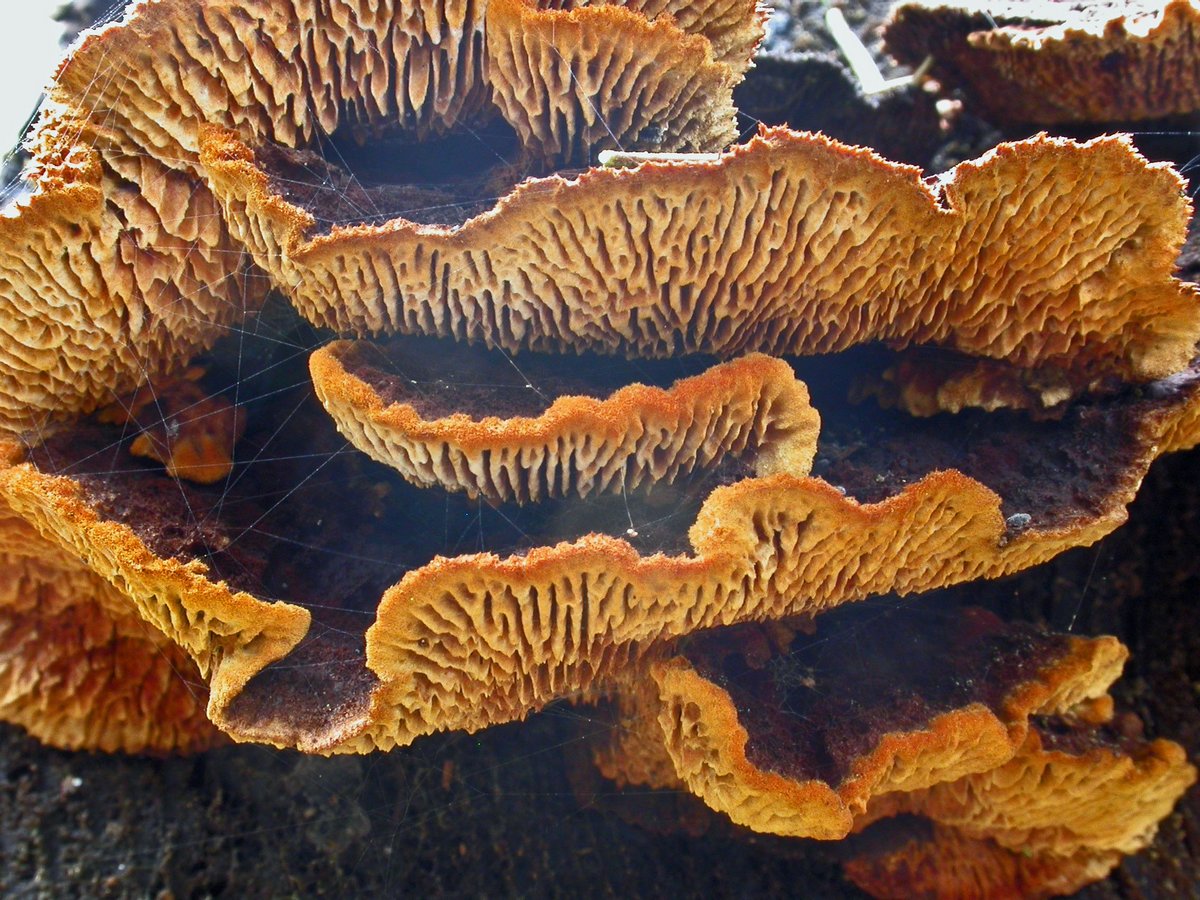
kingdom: Fungi
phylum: Basidiomycota
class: Agaricomycetes
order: Gloeophyllales
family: Gloeophyllaceae
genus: Gloeophyllum
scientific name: Gloeophyllum sepiarium
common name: fyrre-korkhat
